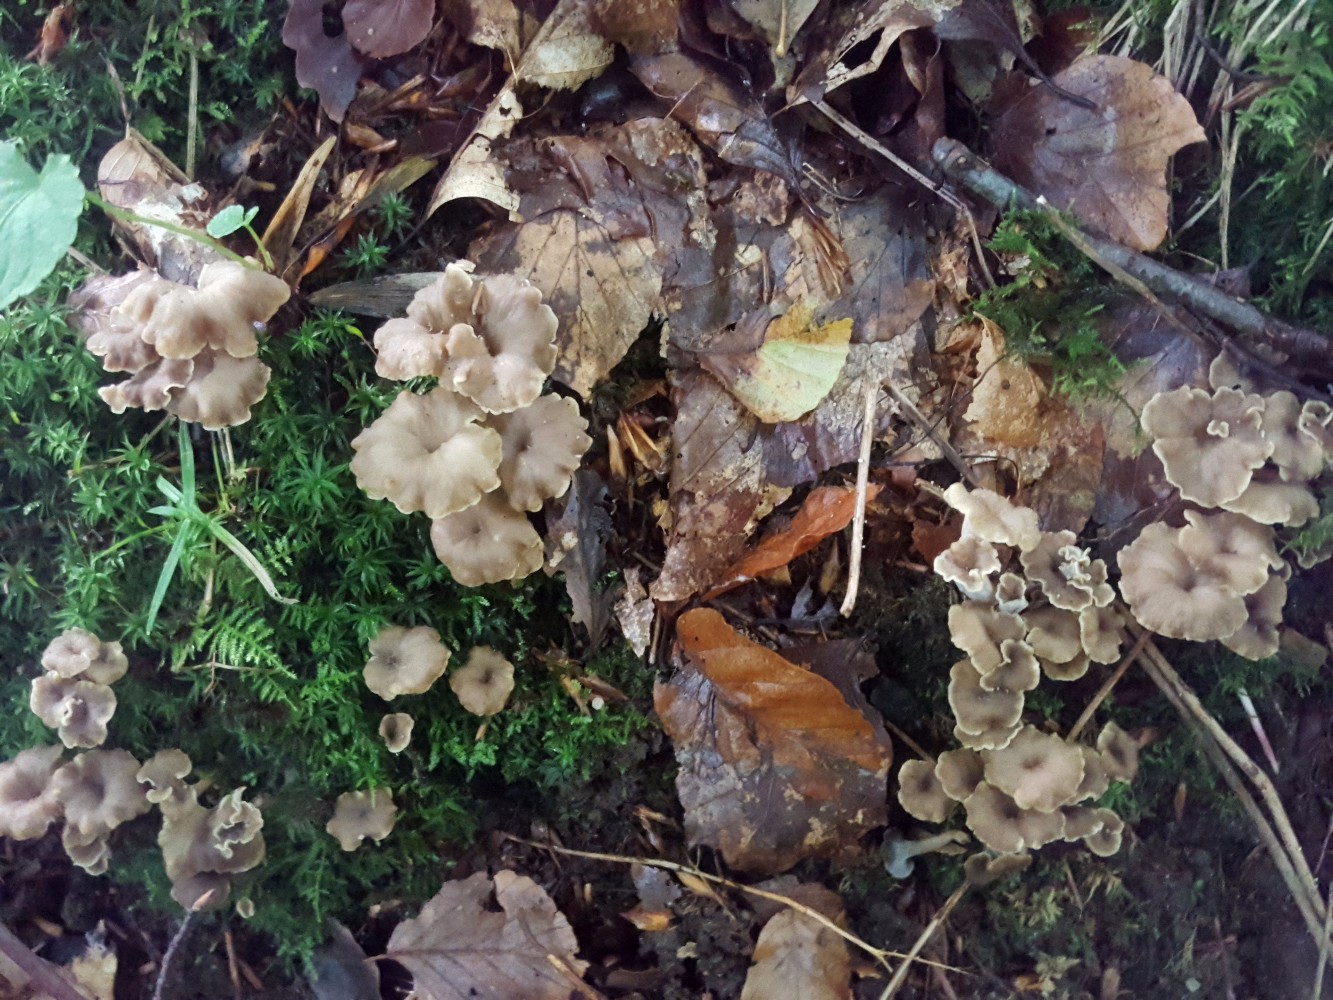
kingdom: Fungi
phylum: Basidiomycota
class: Agaricomycetes
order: Cantharellales
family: Hydnaceae
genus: Craterellus
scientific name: Craterellus undulatus
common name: liden kantarel
